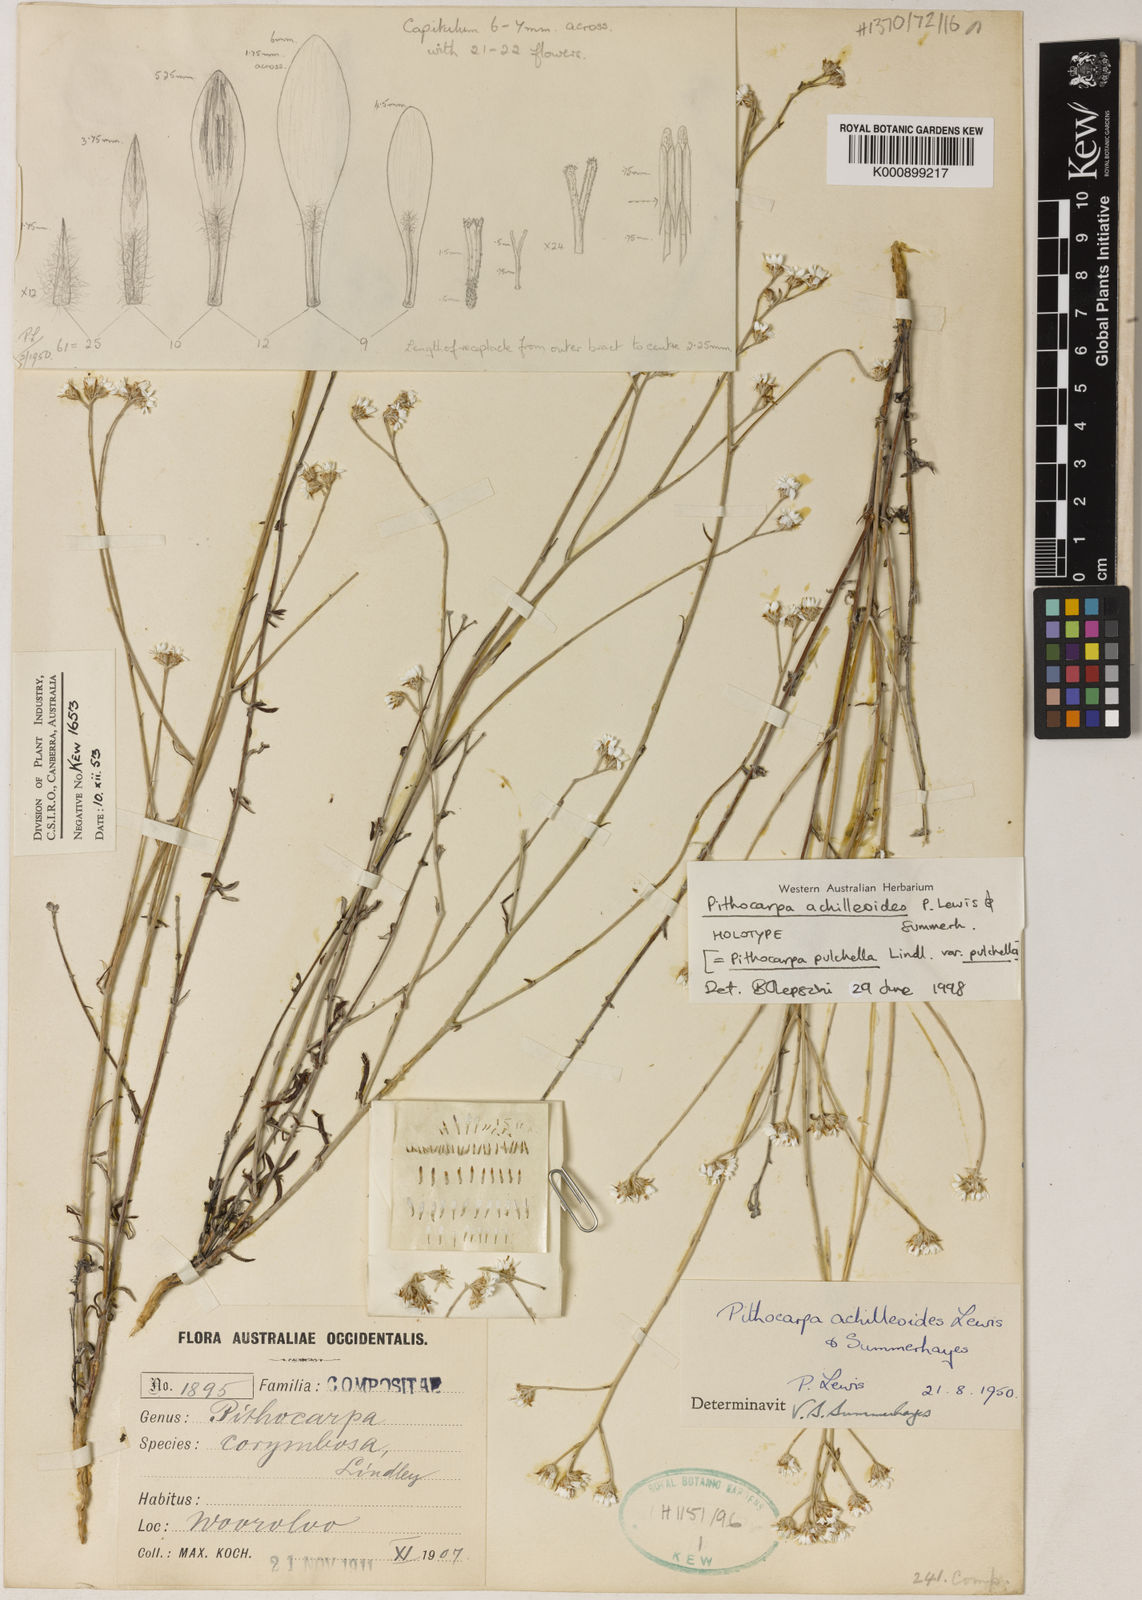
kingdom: Plantae
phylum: Tracheophyta
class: Magnoliopsida
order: Asterales
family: Asteraceae
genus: Pithocarpa
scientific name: Pithocarpa achilleoides
